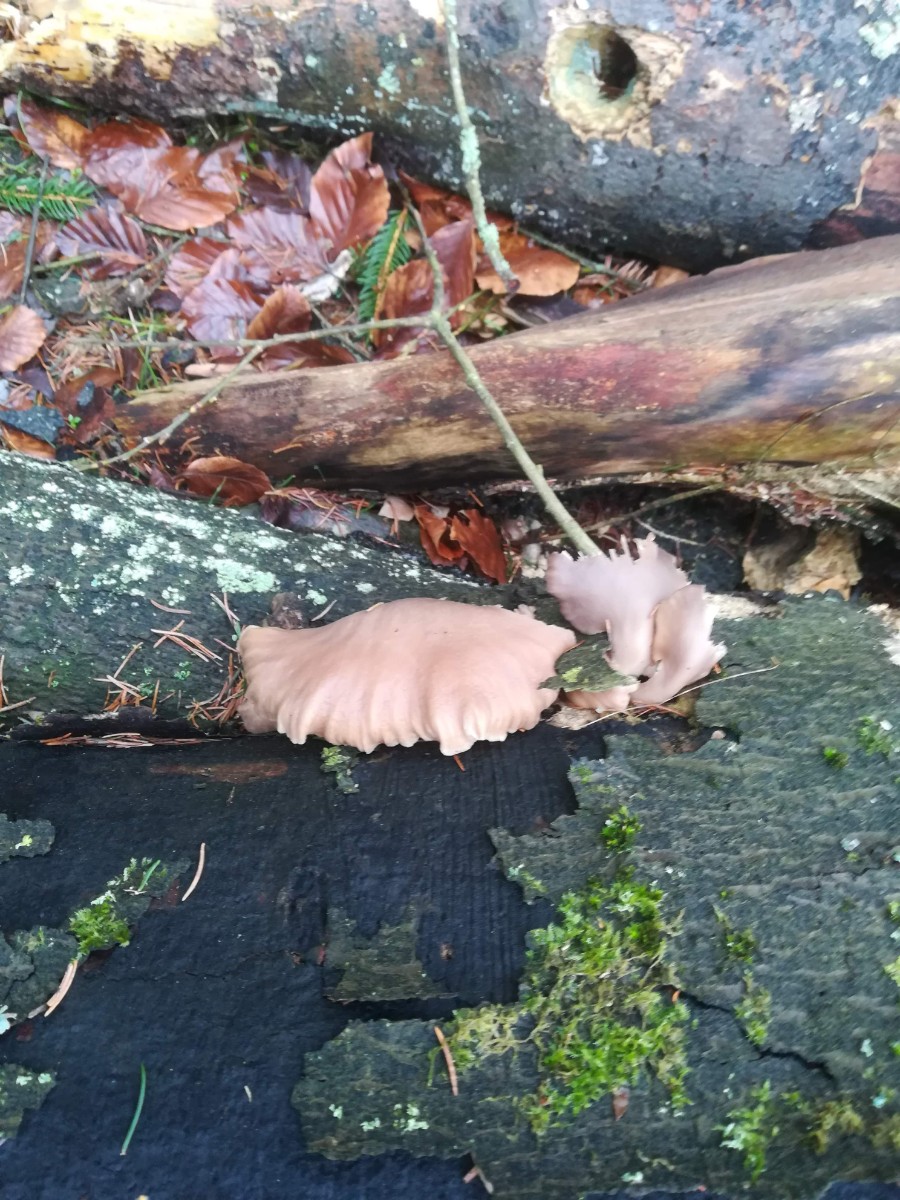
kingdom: Fungi
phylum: Basidiomycota
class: Agaricomycetes
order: Agaricales
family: Pleurotaceae
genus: Pleurotus
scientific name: Pleurotus ostreatus
